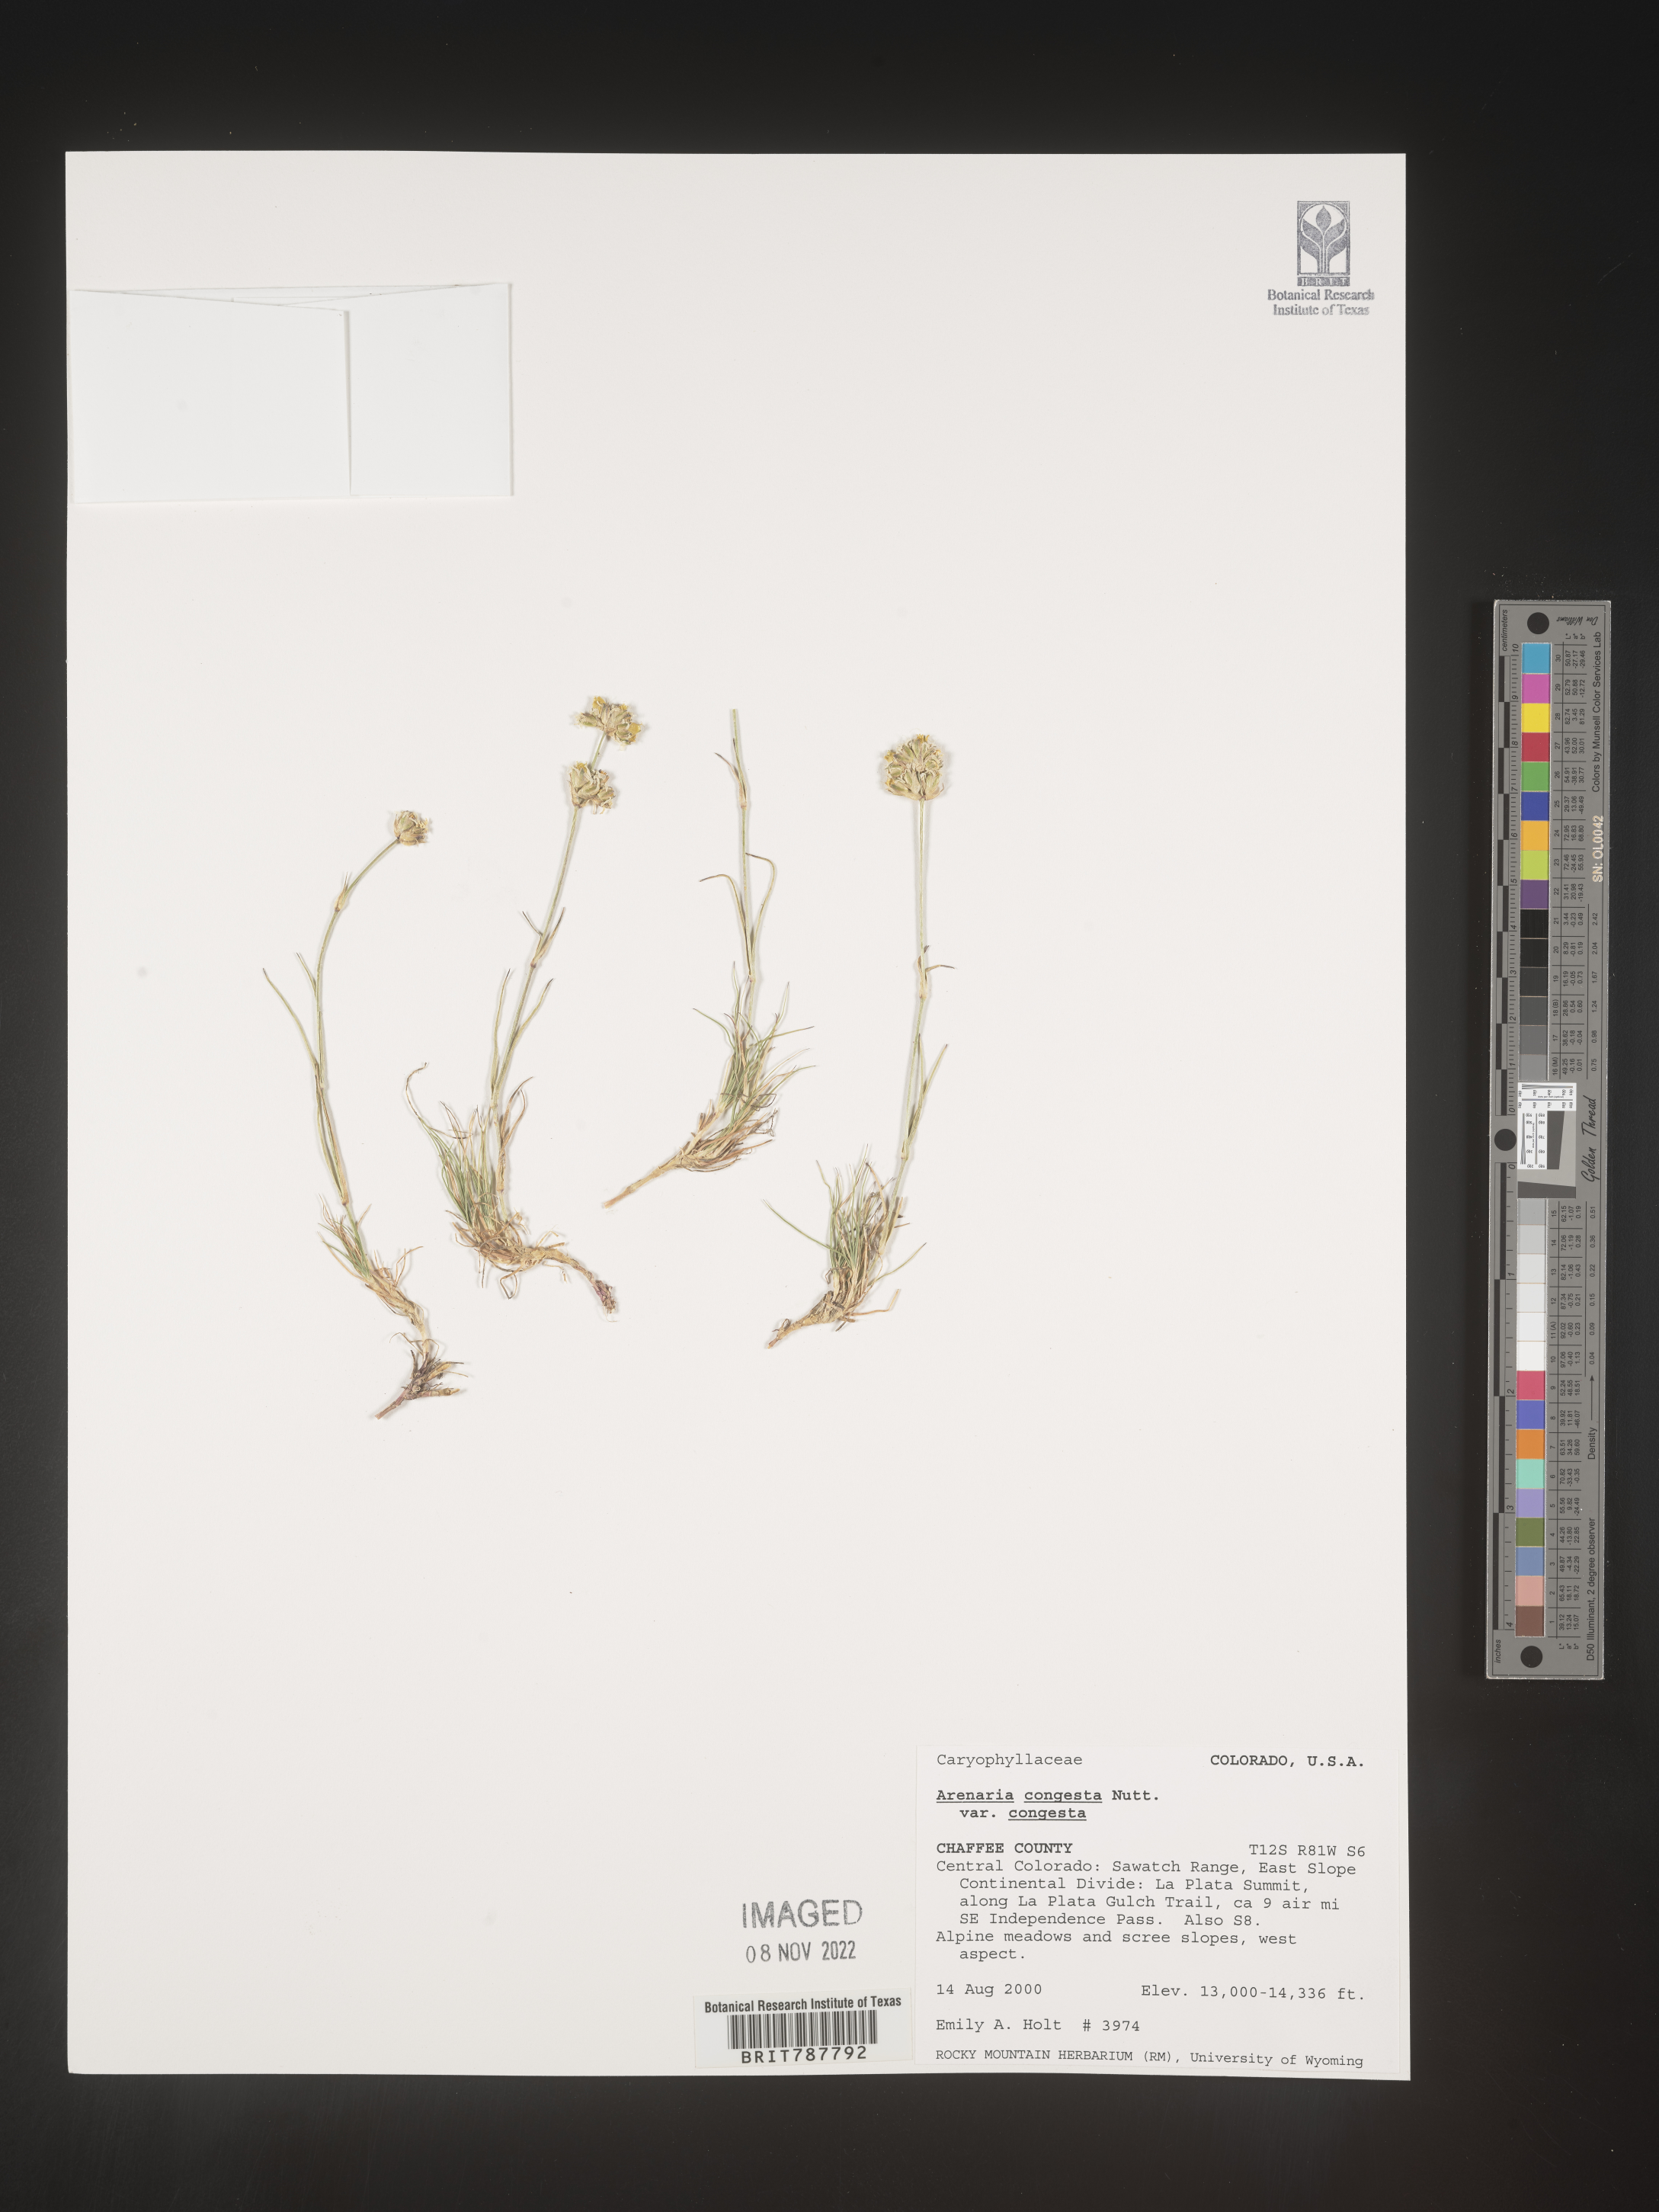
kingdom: Plantae
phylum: Tracheophyta
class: Magnoliopsida
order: Caryophyllales
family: Caryophyllaceae
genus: Eremogone
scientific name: Eremogone congesta
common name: Ballhead sandwort
